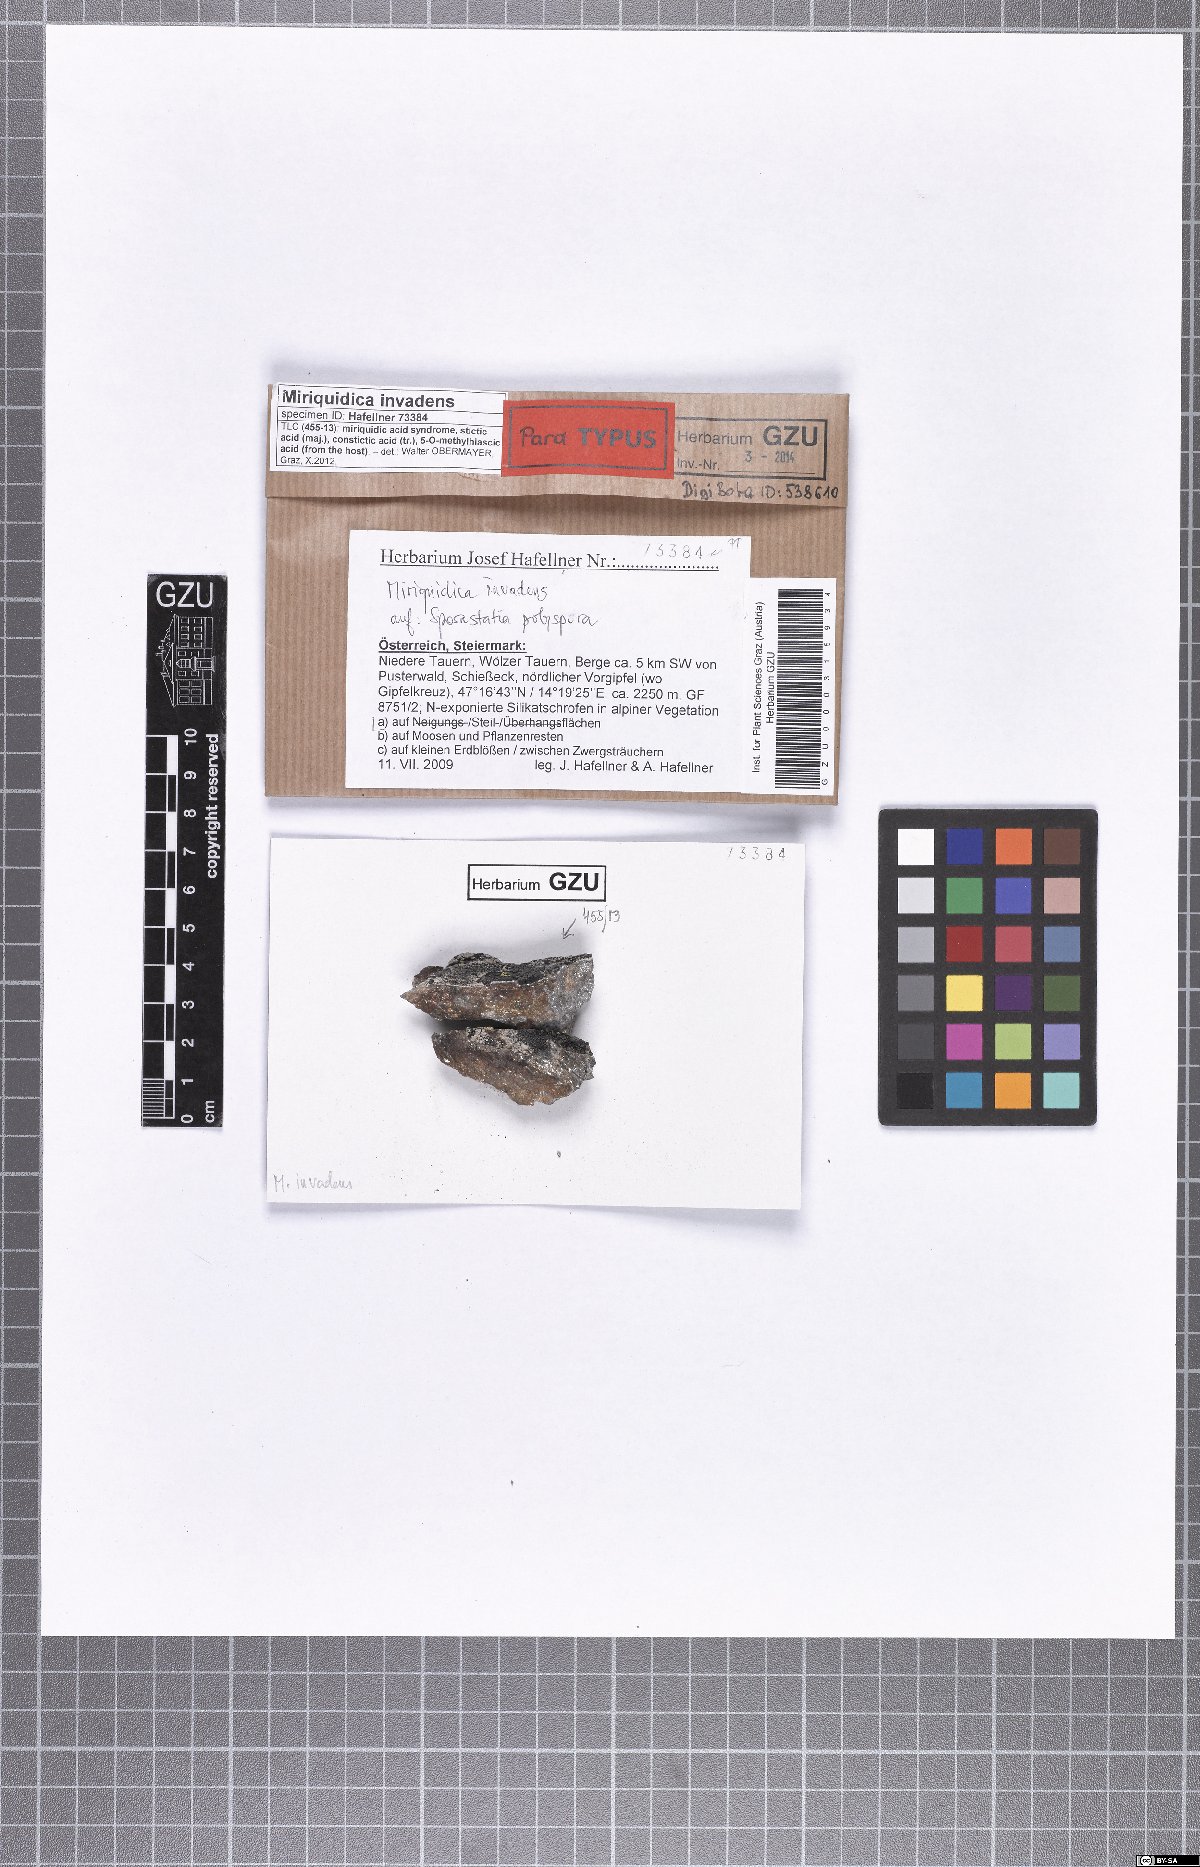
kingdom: Fungi
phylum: Ascomycota
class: Lecanoromycetes
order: Lecanorales
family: Lecanoraceae
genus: Miriquidica
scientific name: Miriquidica invadens
